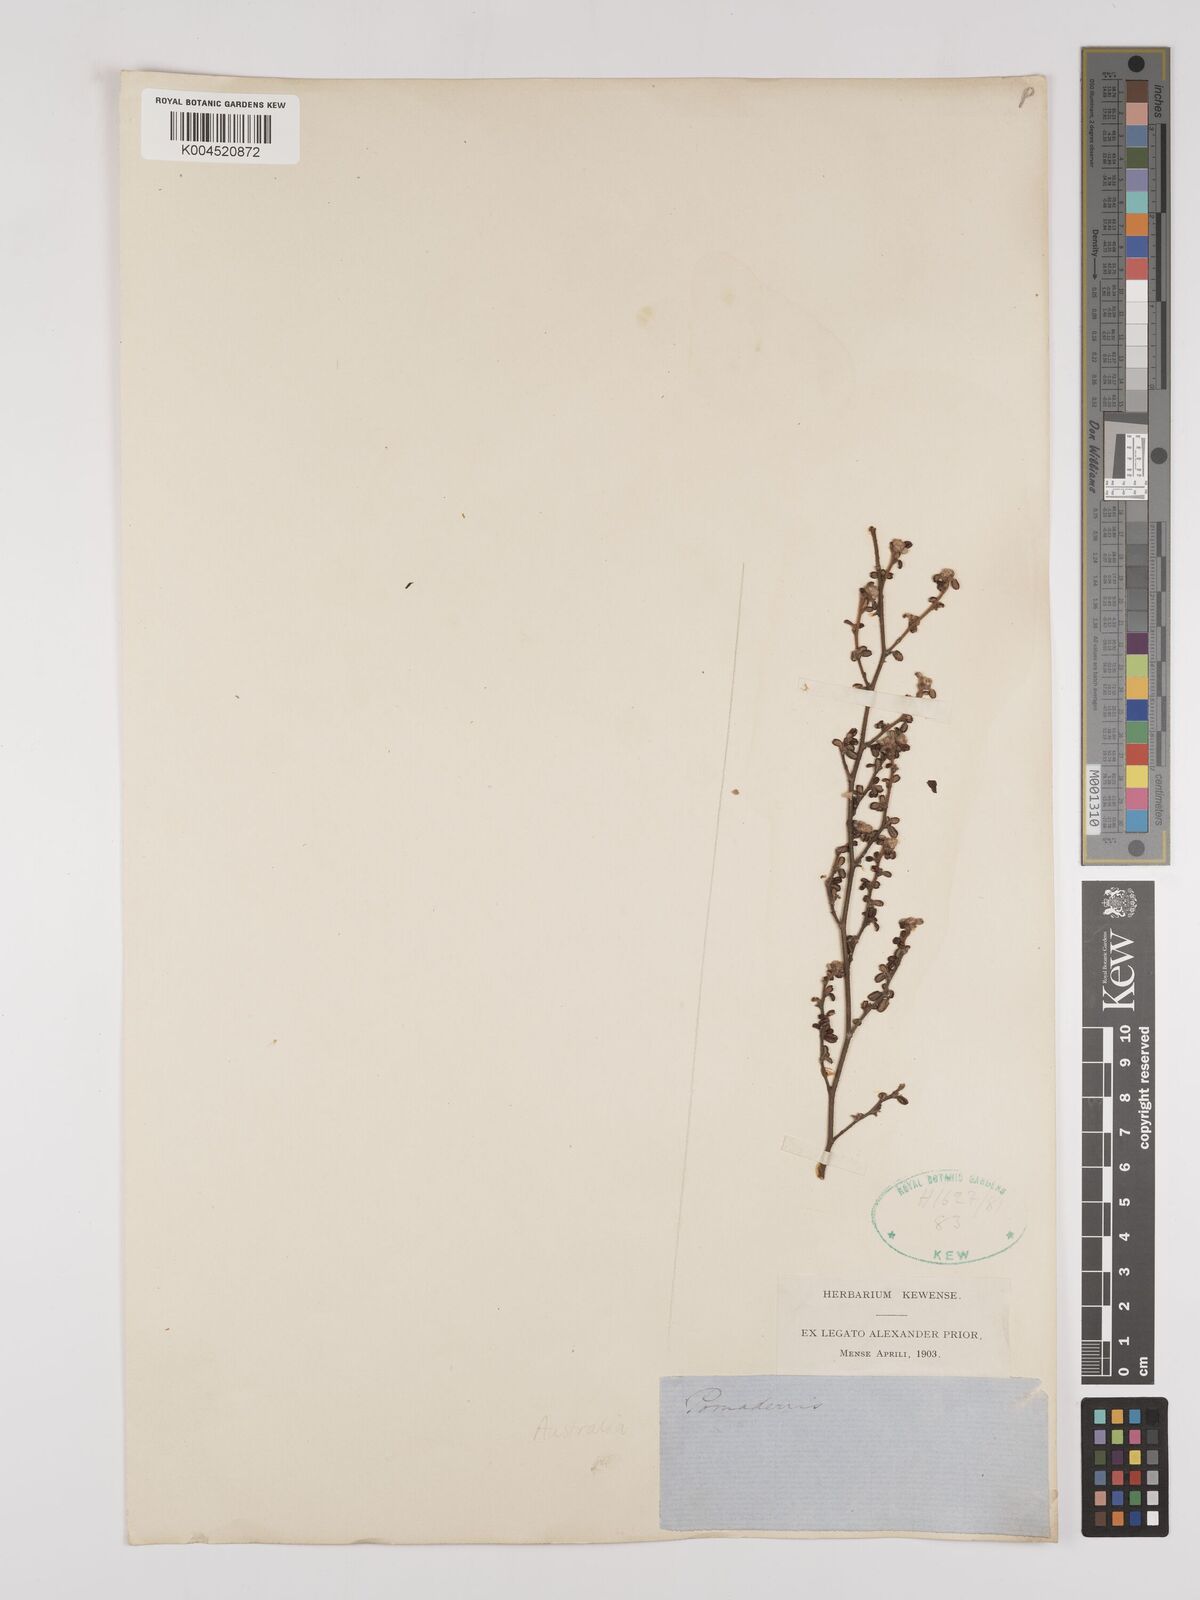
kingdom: Plantae
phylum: Tracheophyta
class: Magnoliopsida
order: Rosales
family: Rhamnaceae
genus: Pomaderris
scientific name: Pomaderris
